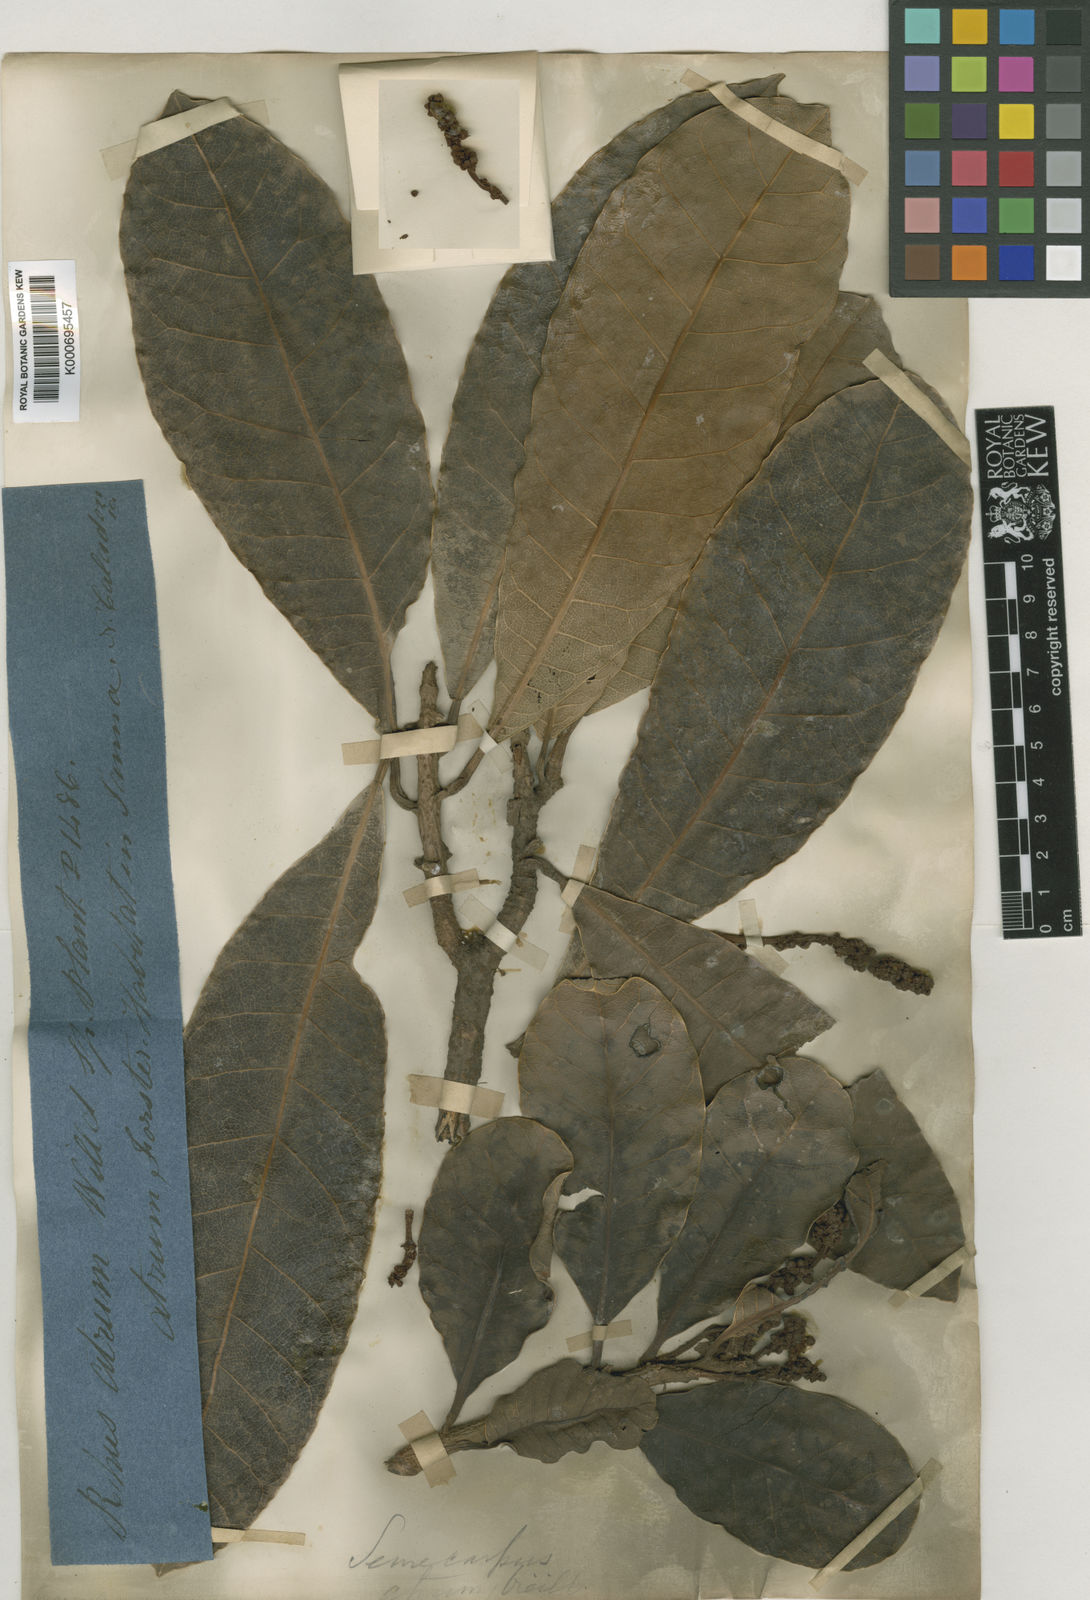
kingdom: Plantae
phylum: Tracheophyta
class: Magnoliopsida
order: Sapindales
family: Anacardiaceae
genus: Semecarpus
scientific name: Semecarpus
